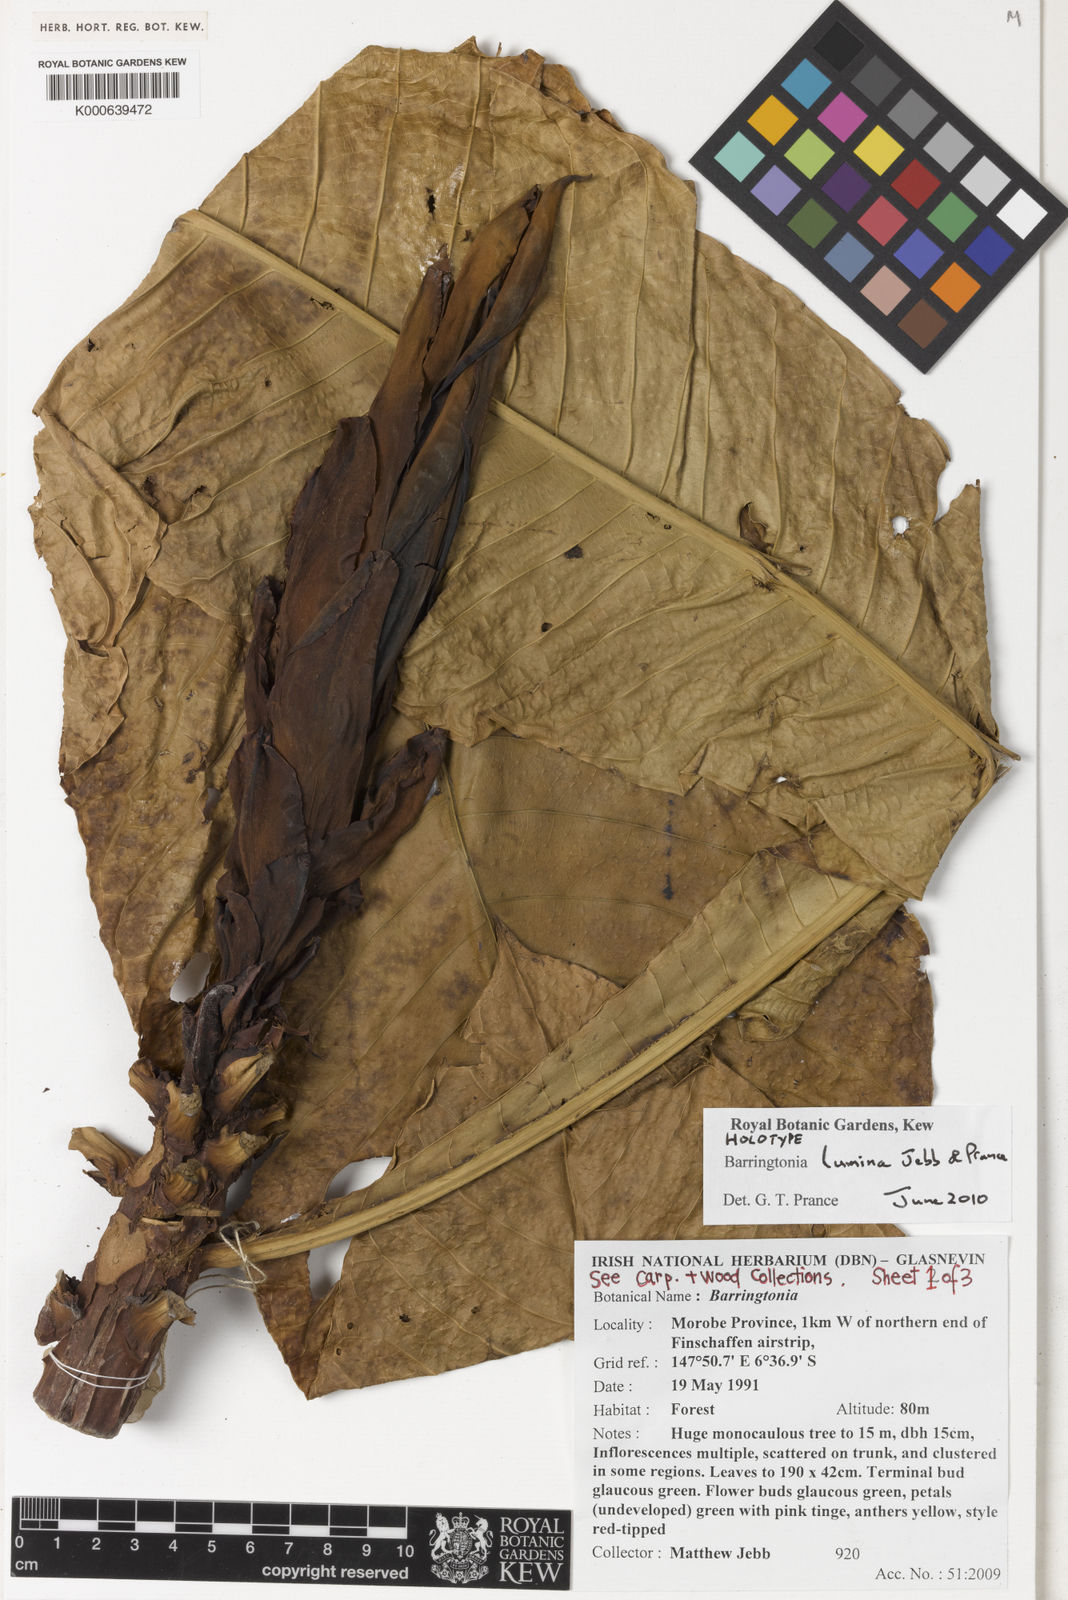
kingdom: Plantae
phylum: Tracheophyta
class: Magnoliopsida
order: Ericales
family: Lecythidaceae
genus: Barringtonia
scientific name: Barringtonia lumina
